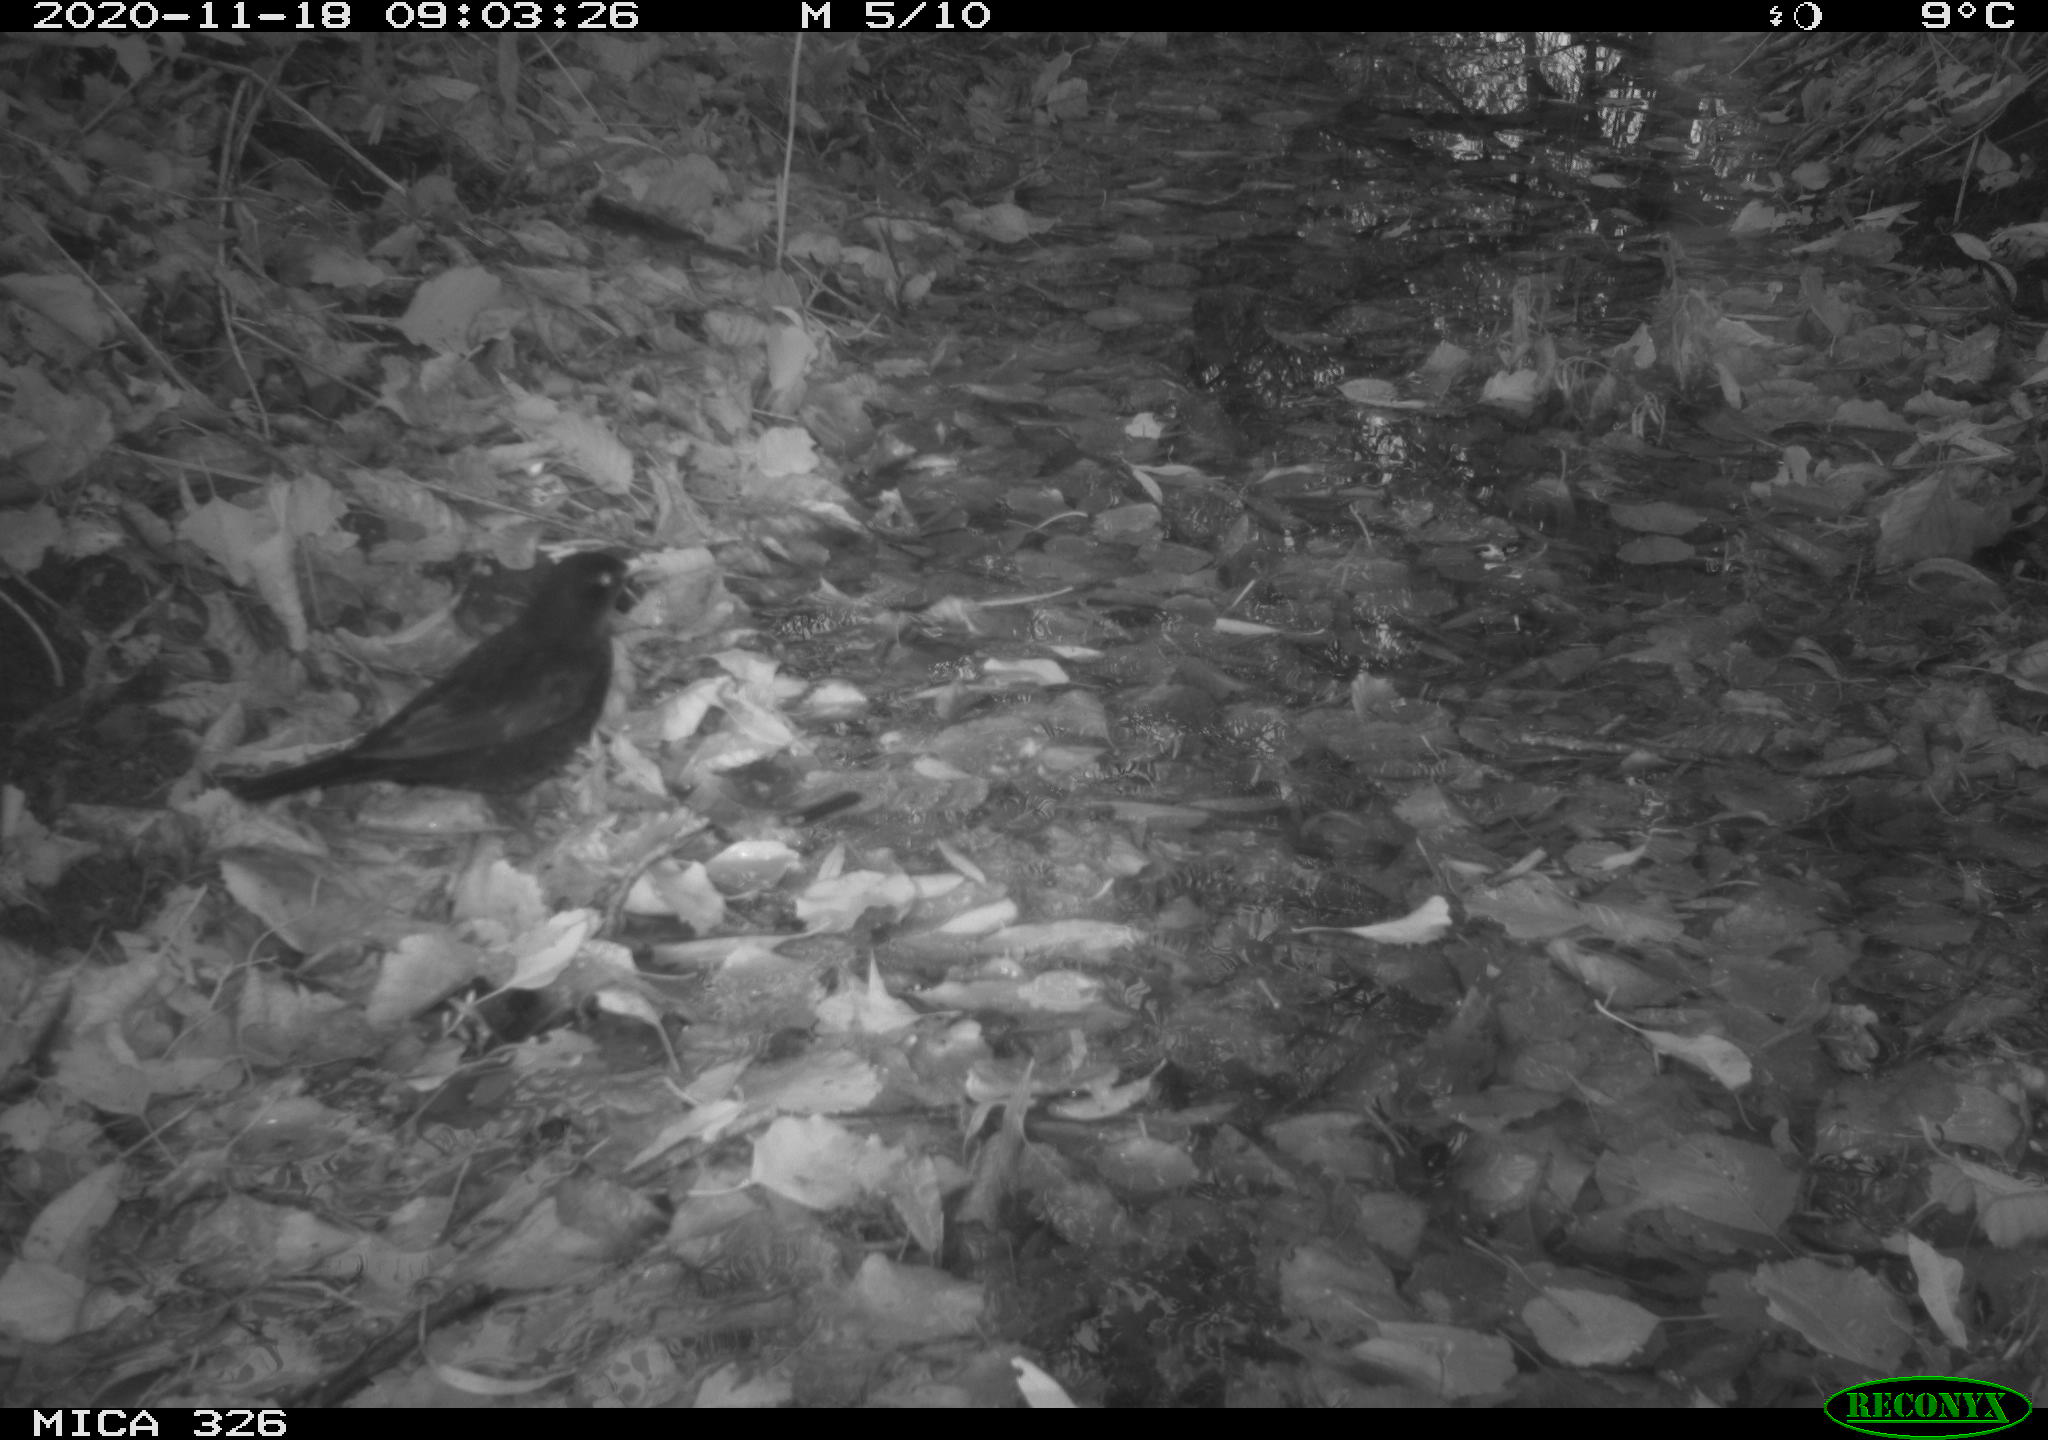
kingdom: Animalia
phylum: Chordata
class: Aves
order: Passeriformes
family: Turdidae
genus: Turdus
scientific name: Turdus merula
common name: Common blackbird
